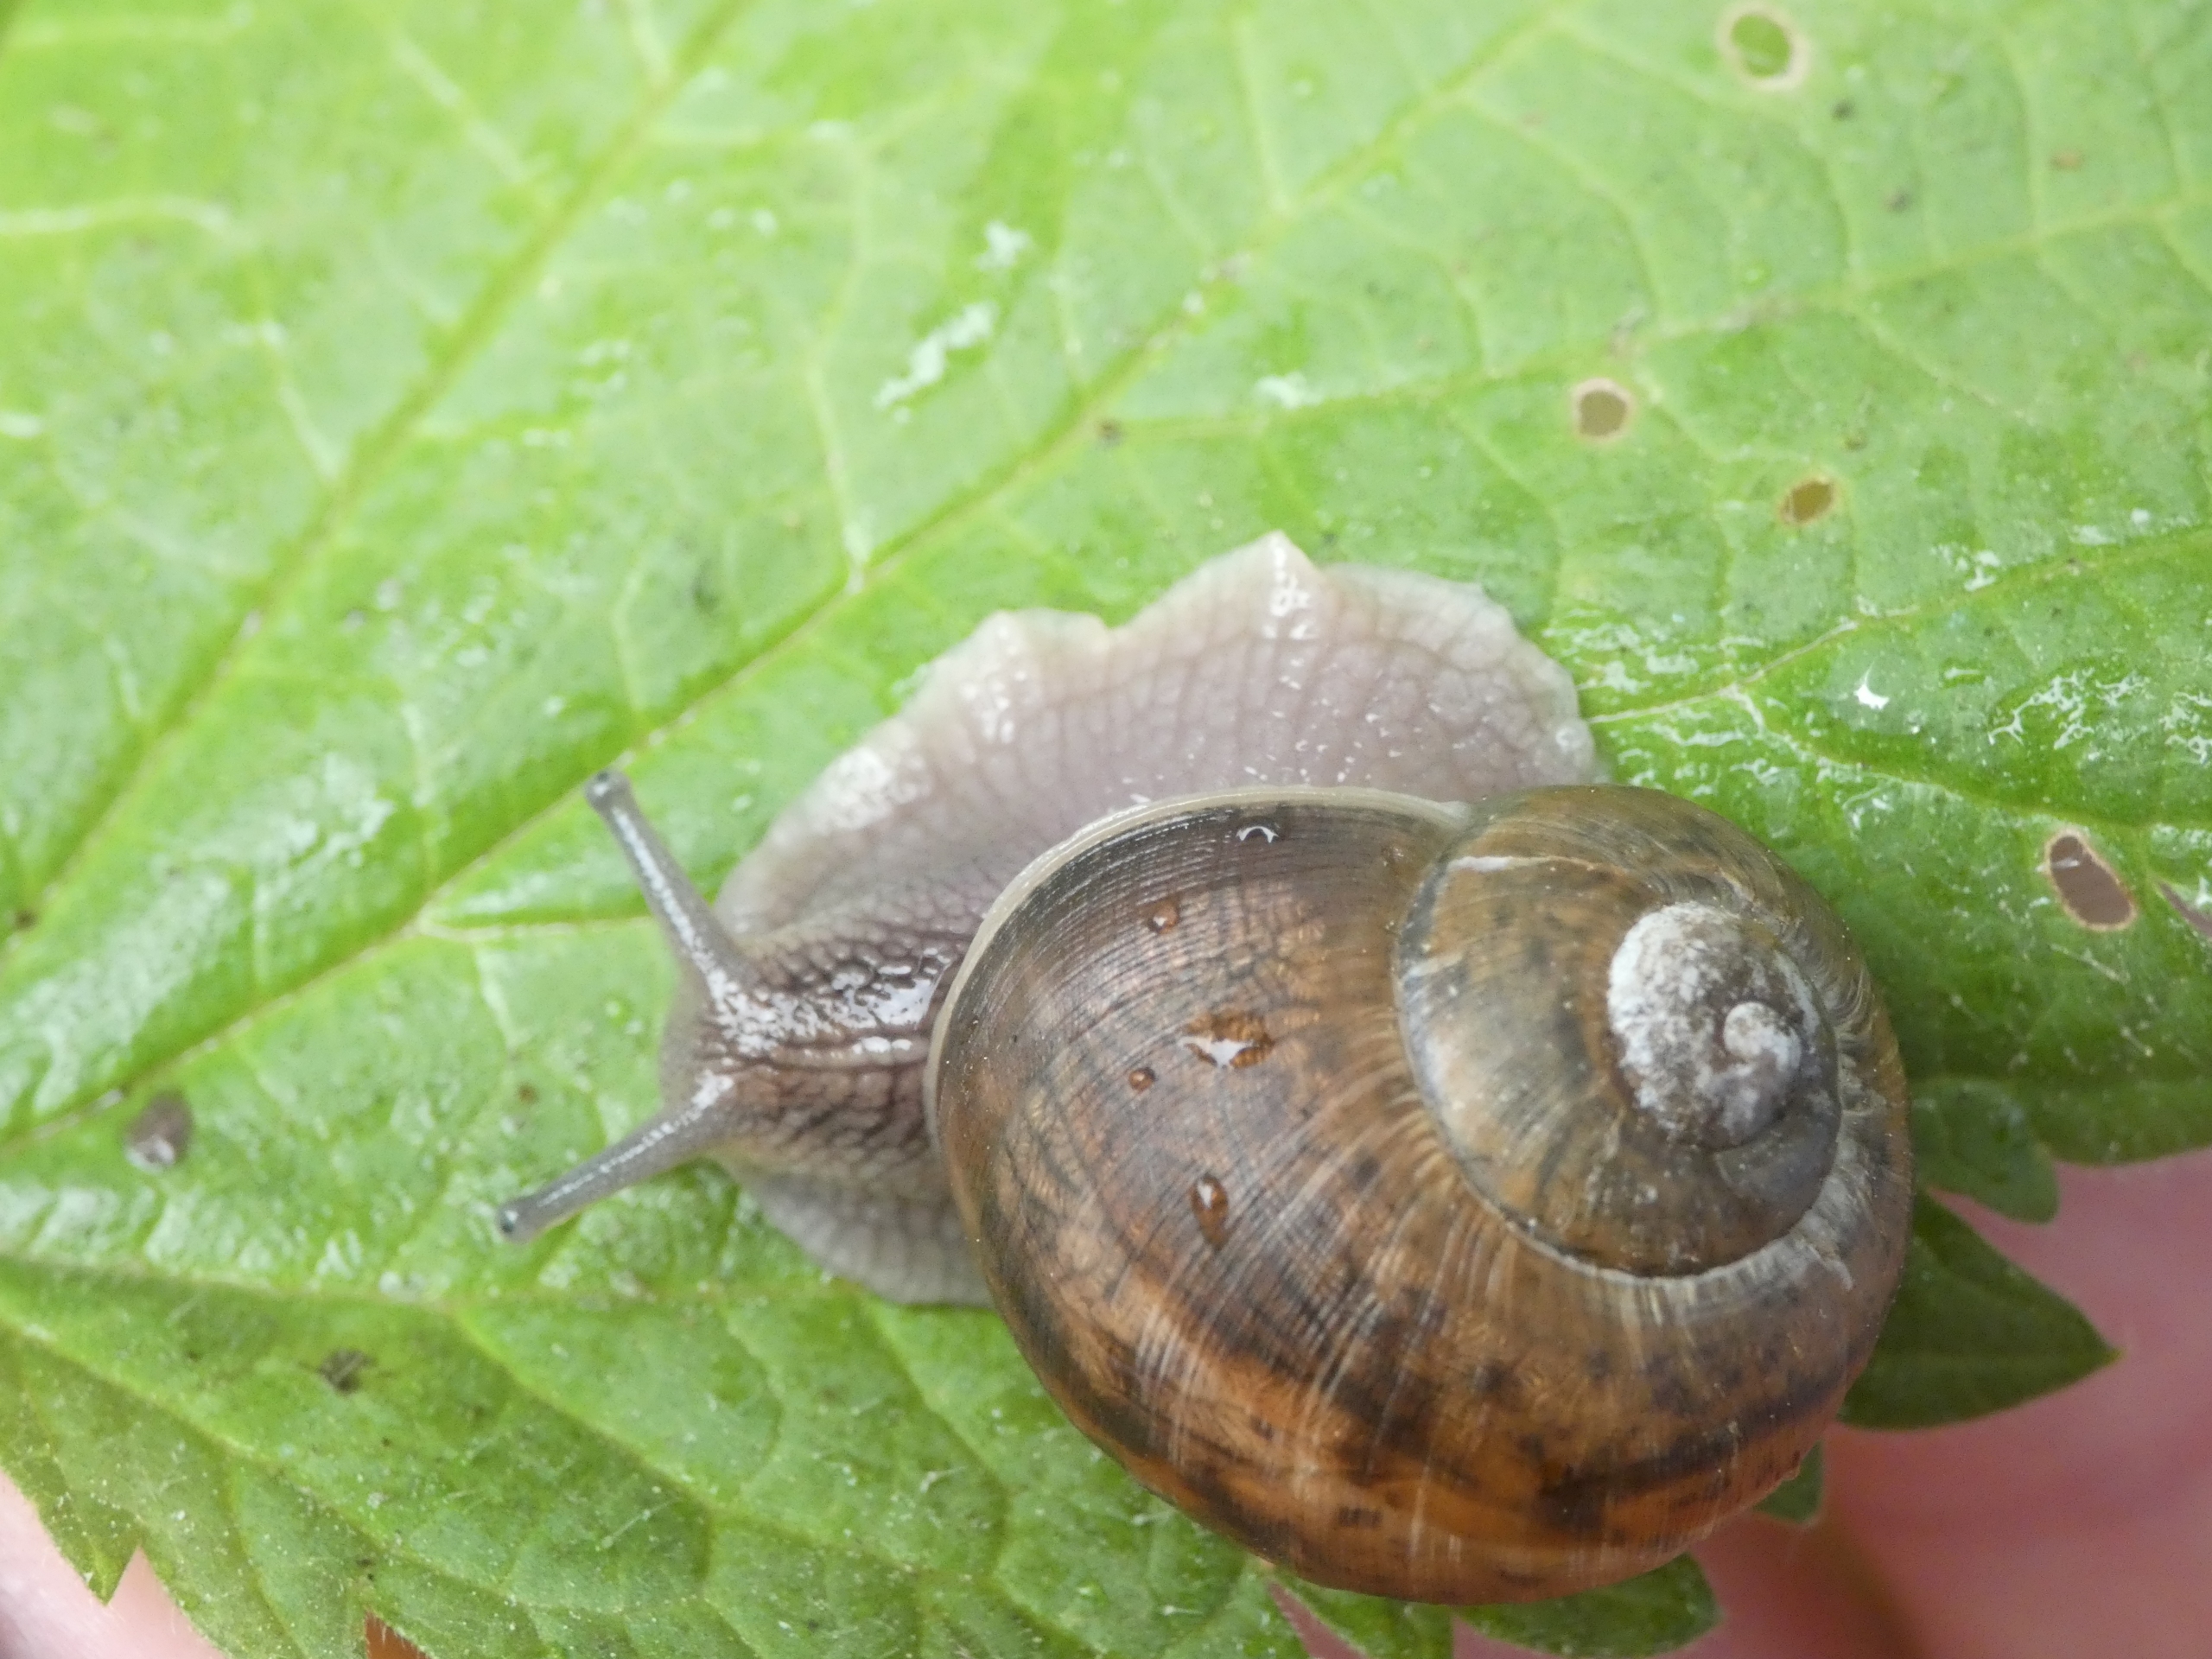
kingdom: Animalia
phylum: Mollusca
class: Gastropoda
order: Stylommatophora
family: Helicidae
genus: Cornu
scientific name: Cornu aspersum
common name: Plettet voldsnegl
